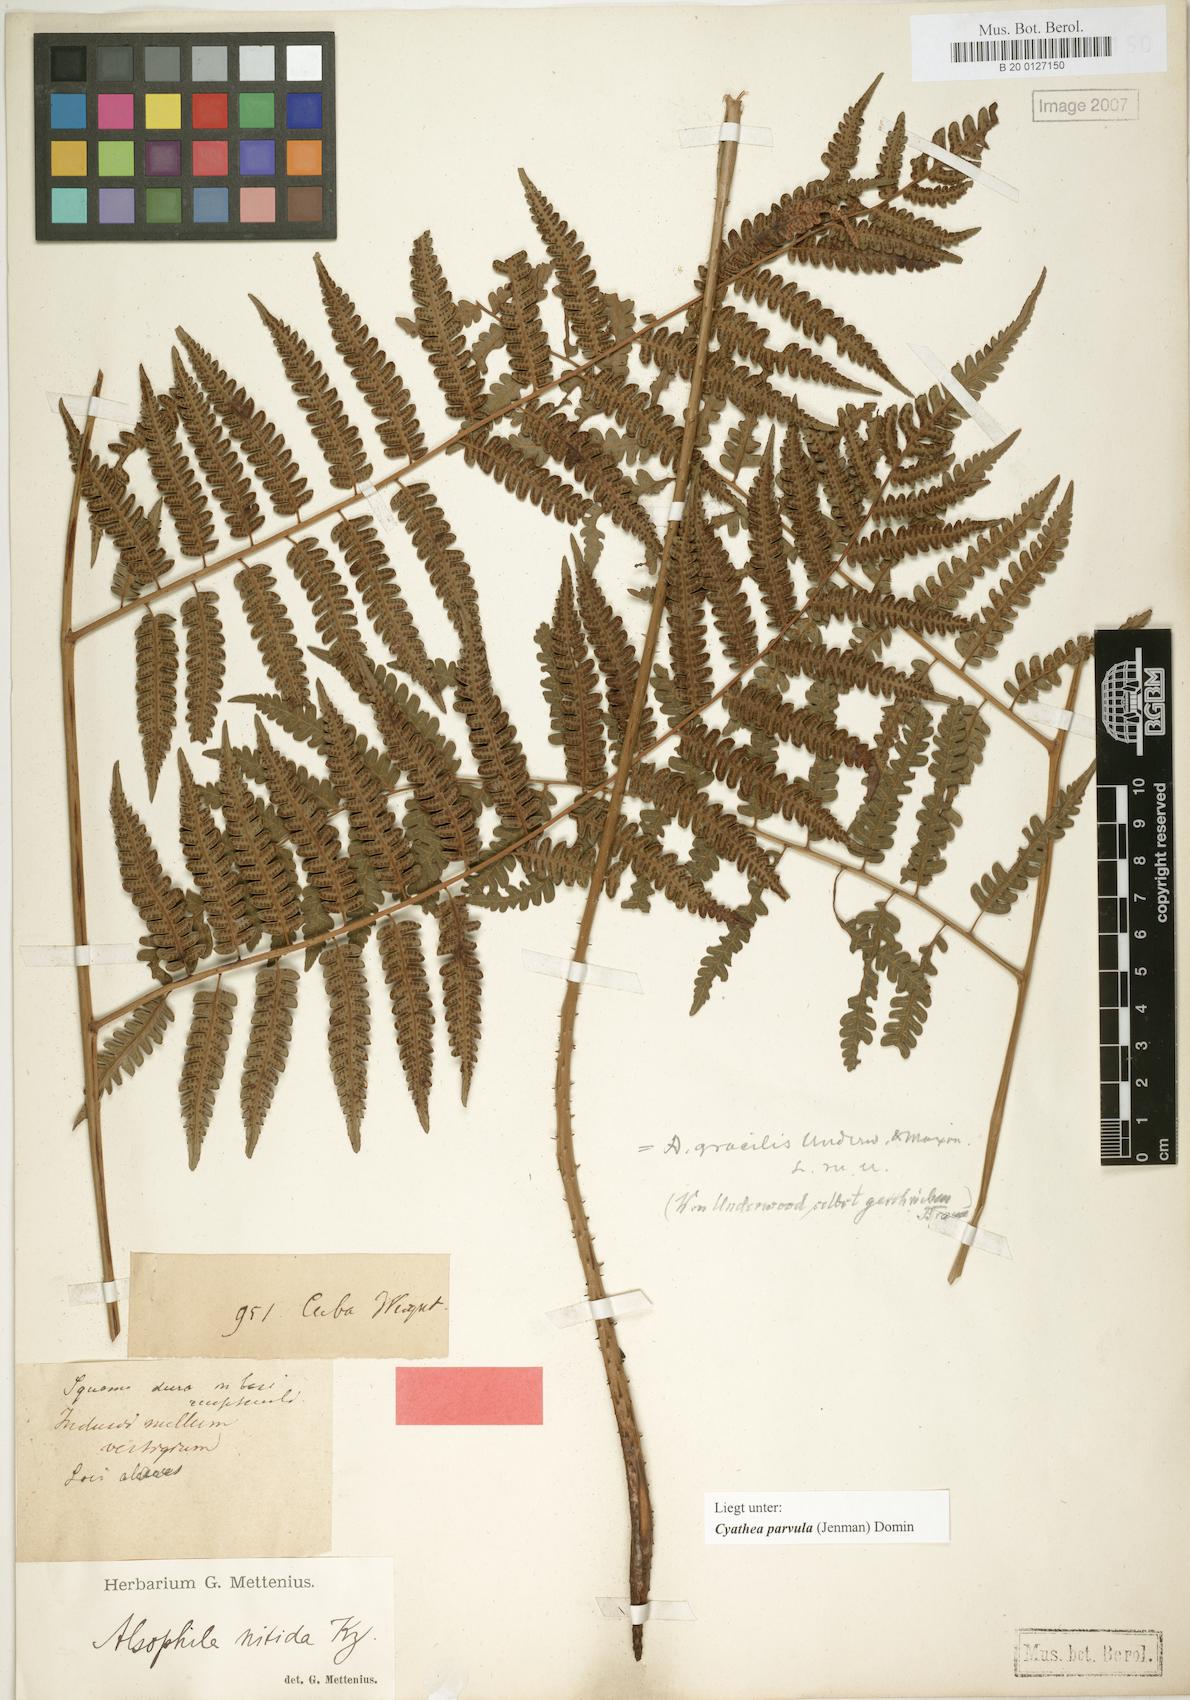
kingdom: Plantae
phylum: Tracheophyta
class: Polypodiopsida
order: Cyatheales
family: Cyatheaceae
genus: Cyathea
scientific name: Cyathea parvula
